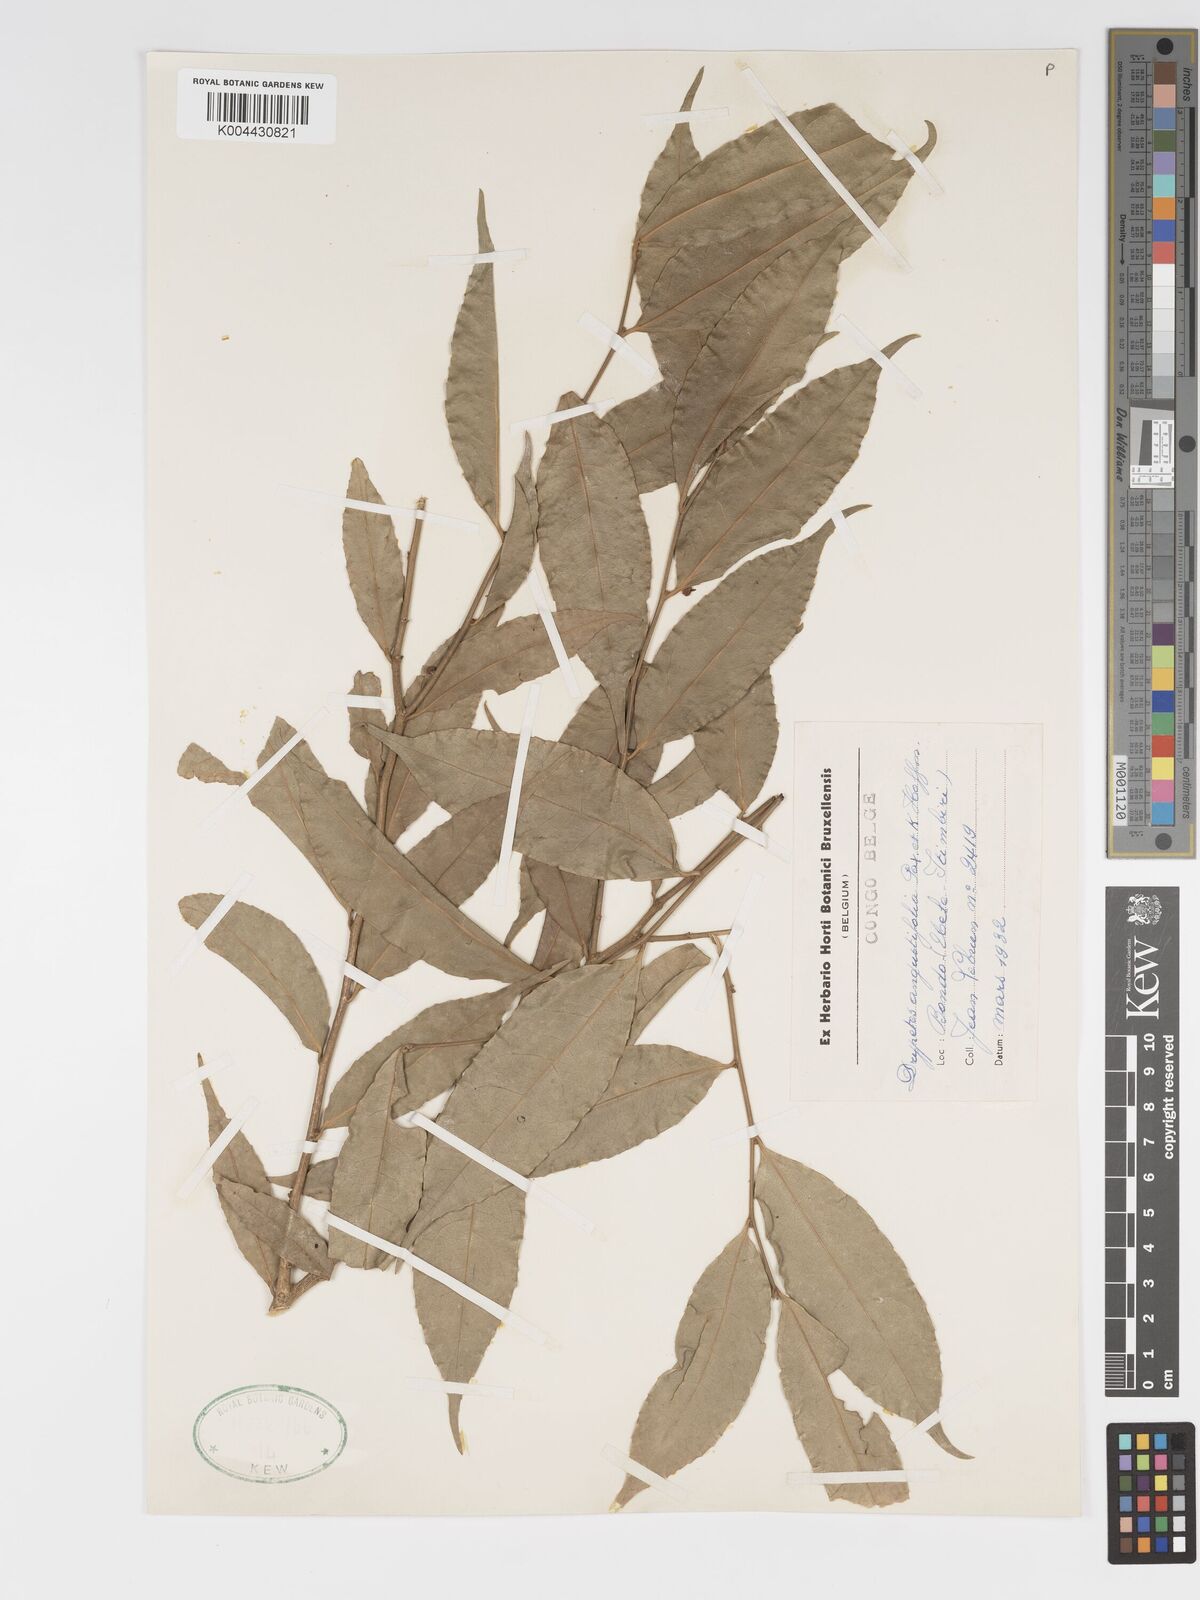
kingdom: Plantae
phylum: Tracheophyta
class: Magnoliopsida
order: Malpighiales
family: Putranjivaceae
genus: Drypetes
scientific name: Drypetes angustifolia
